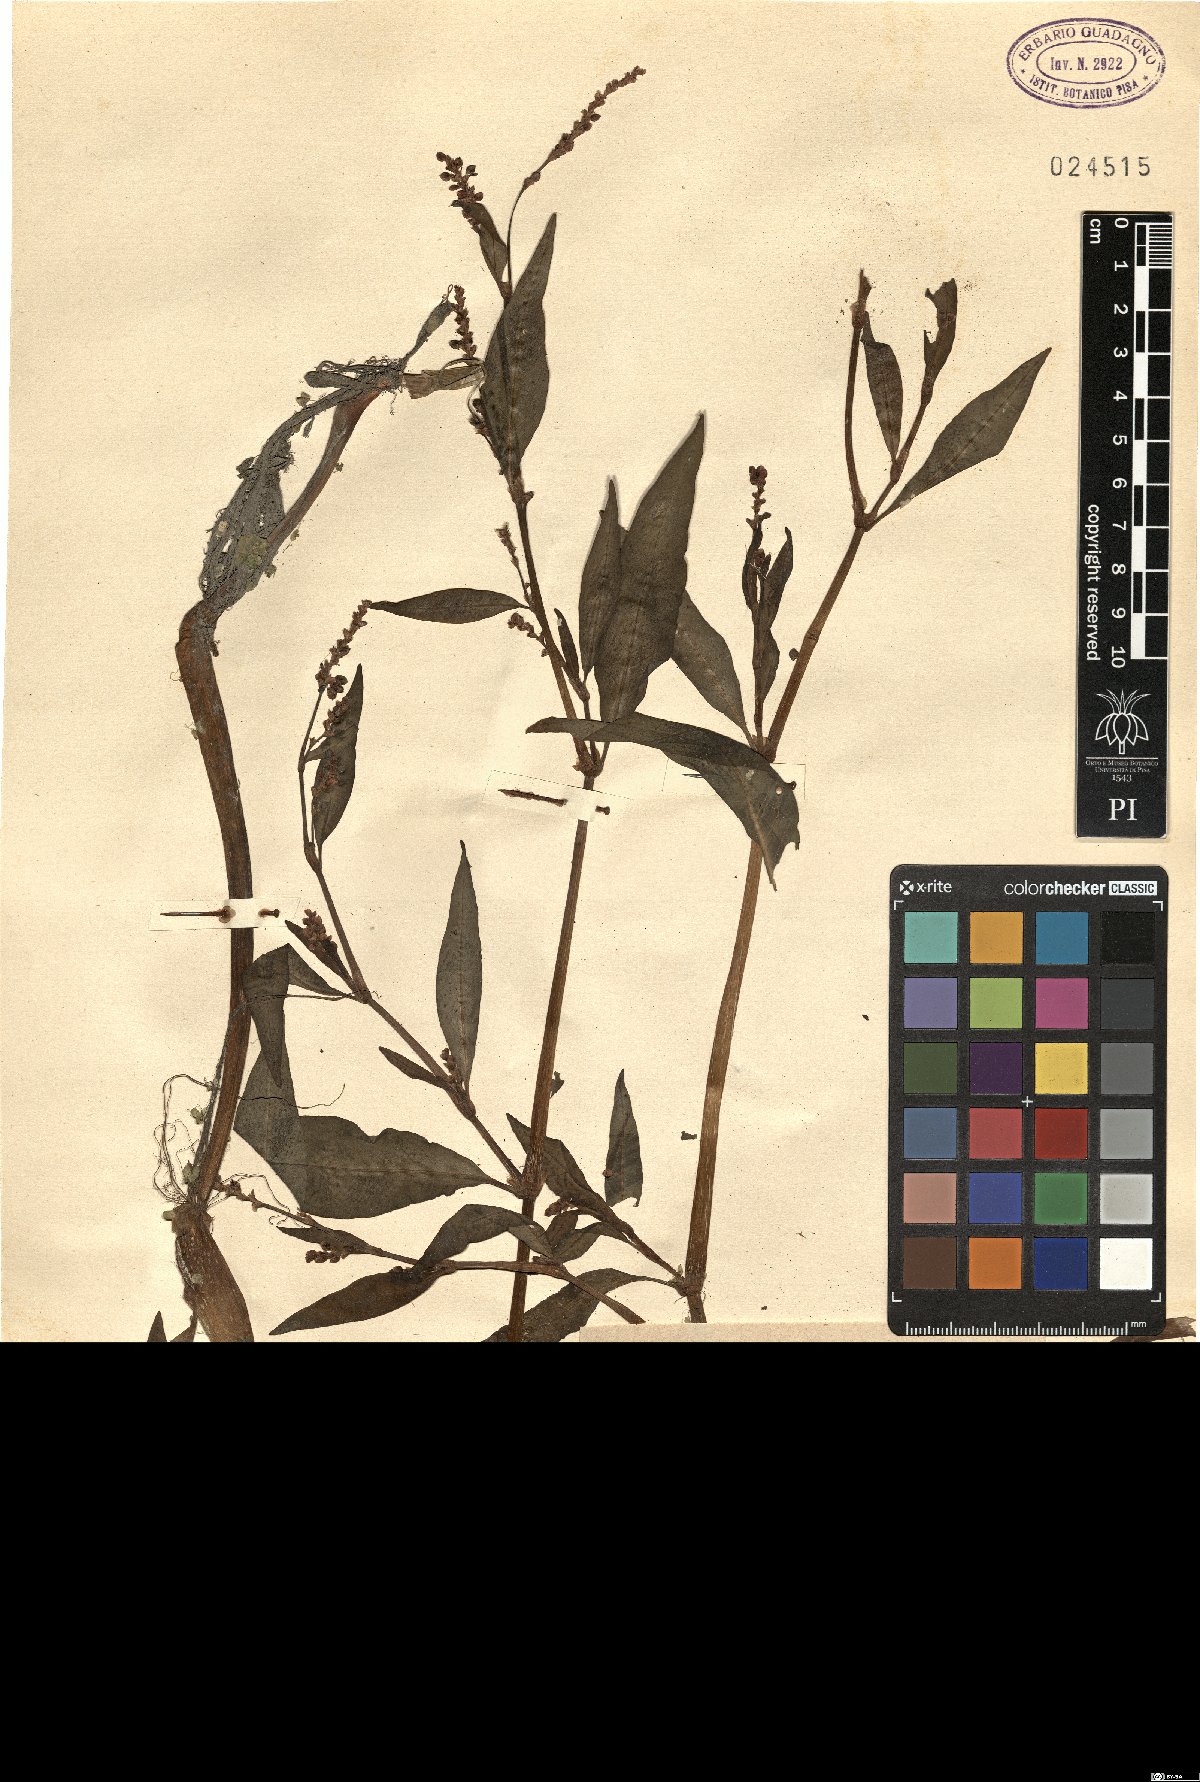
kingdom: Plantae
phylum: Tracheophyta
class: Magnoliopsida
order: Caryophyllales
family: Polygonaceae
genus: Persicaria
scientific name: Persicaria maculosa
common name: Redshank
